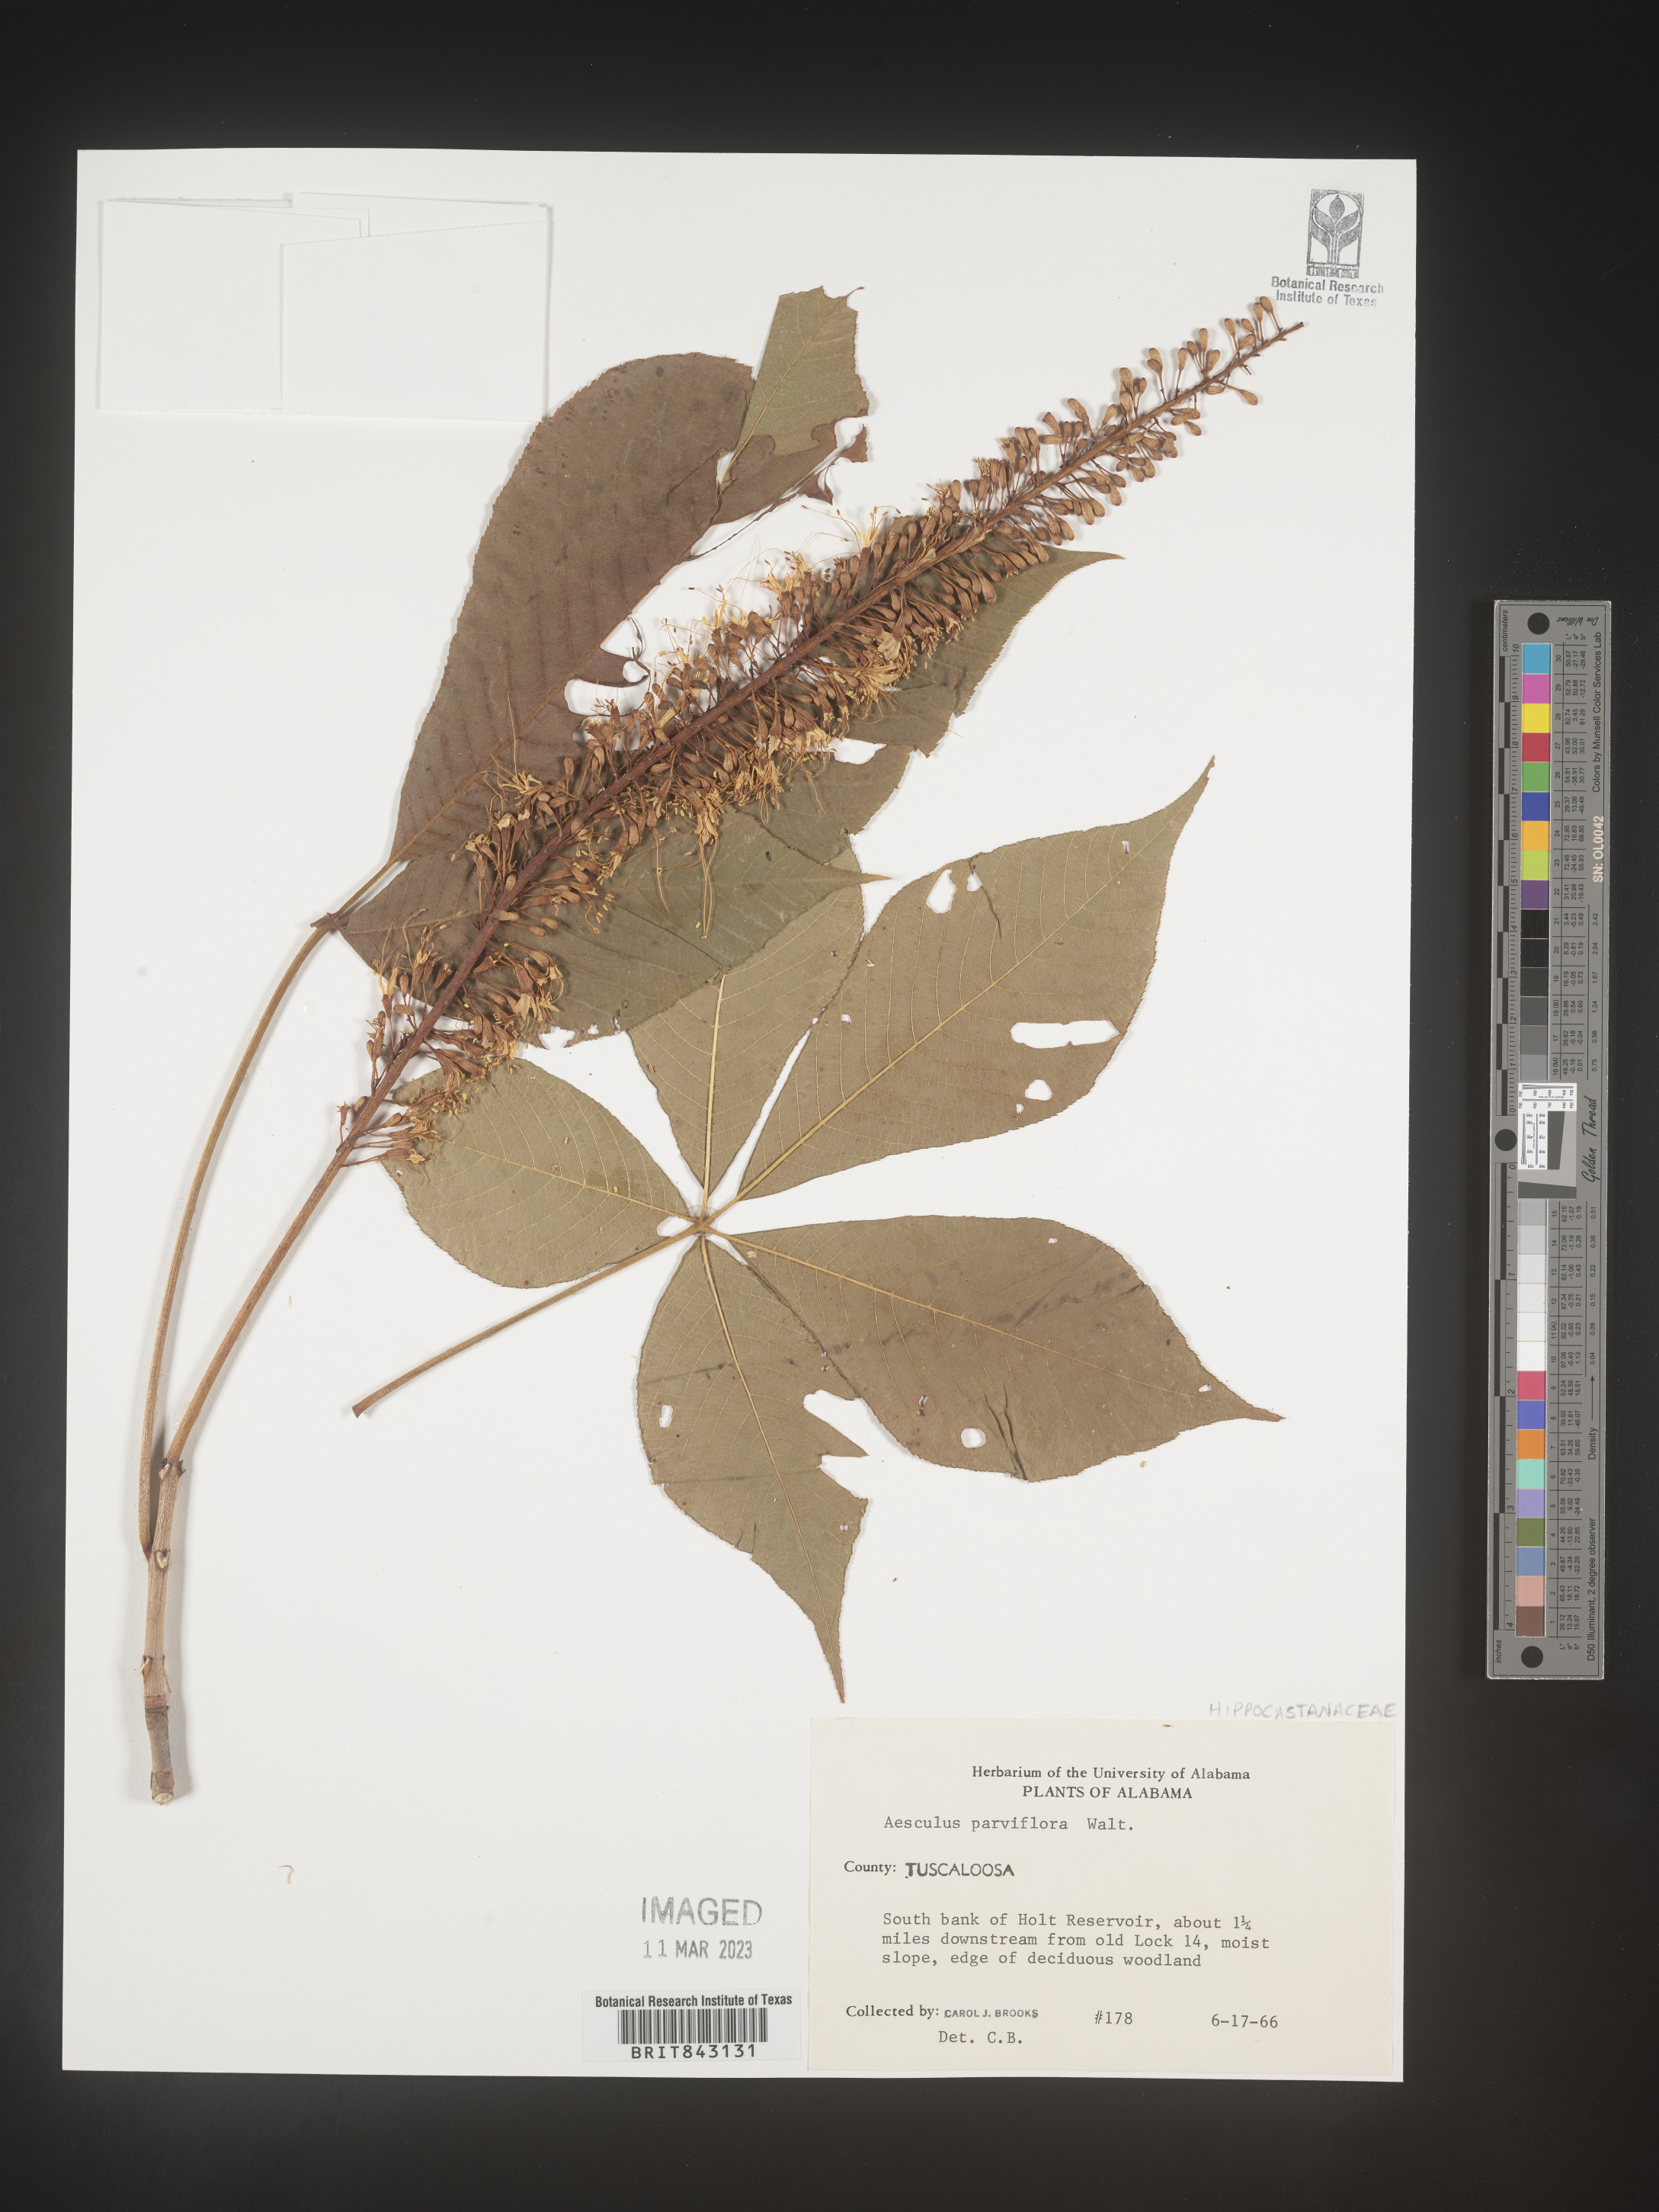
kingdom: Plantae
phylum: Tracheophyta
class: Magnoliopsida
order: Sapindales
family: Sapindaceae
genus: Aesculus
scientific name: Aesculus
